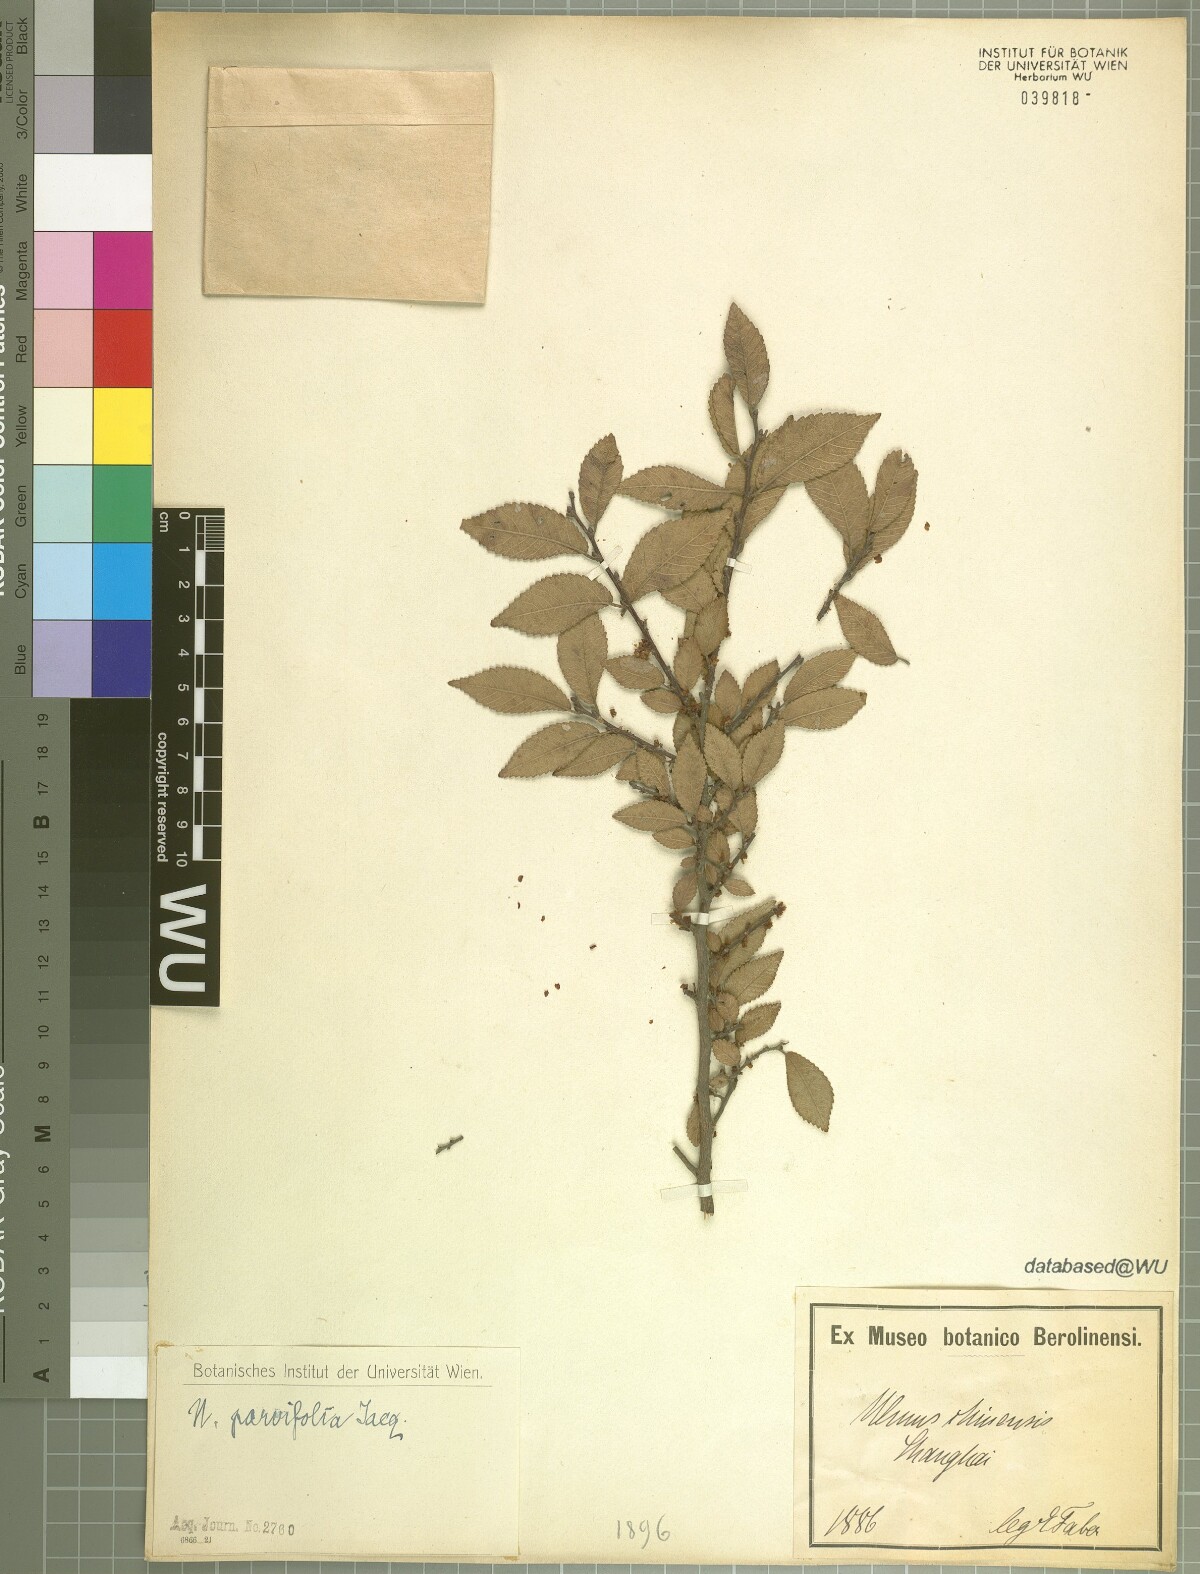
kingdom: Plantae
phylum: Tracheophyta
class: Magnoliopsida
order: Rosales
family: Ulmaceae
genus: Ulmus
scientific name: Ulmus parvifolia
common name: Chinese elm
